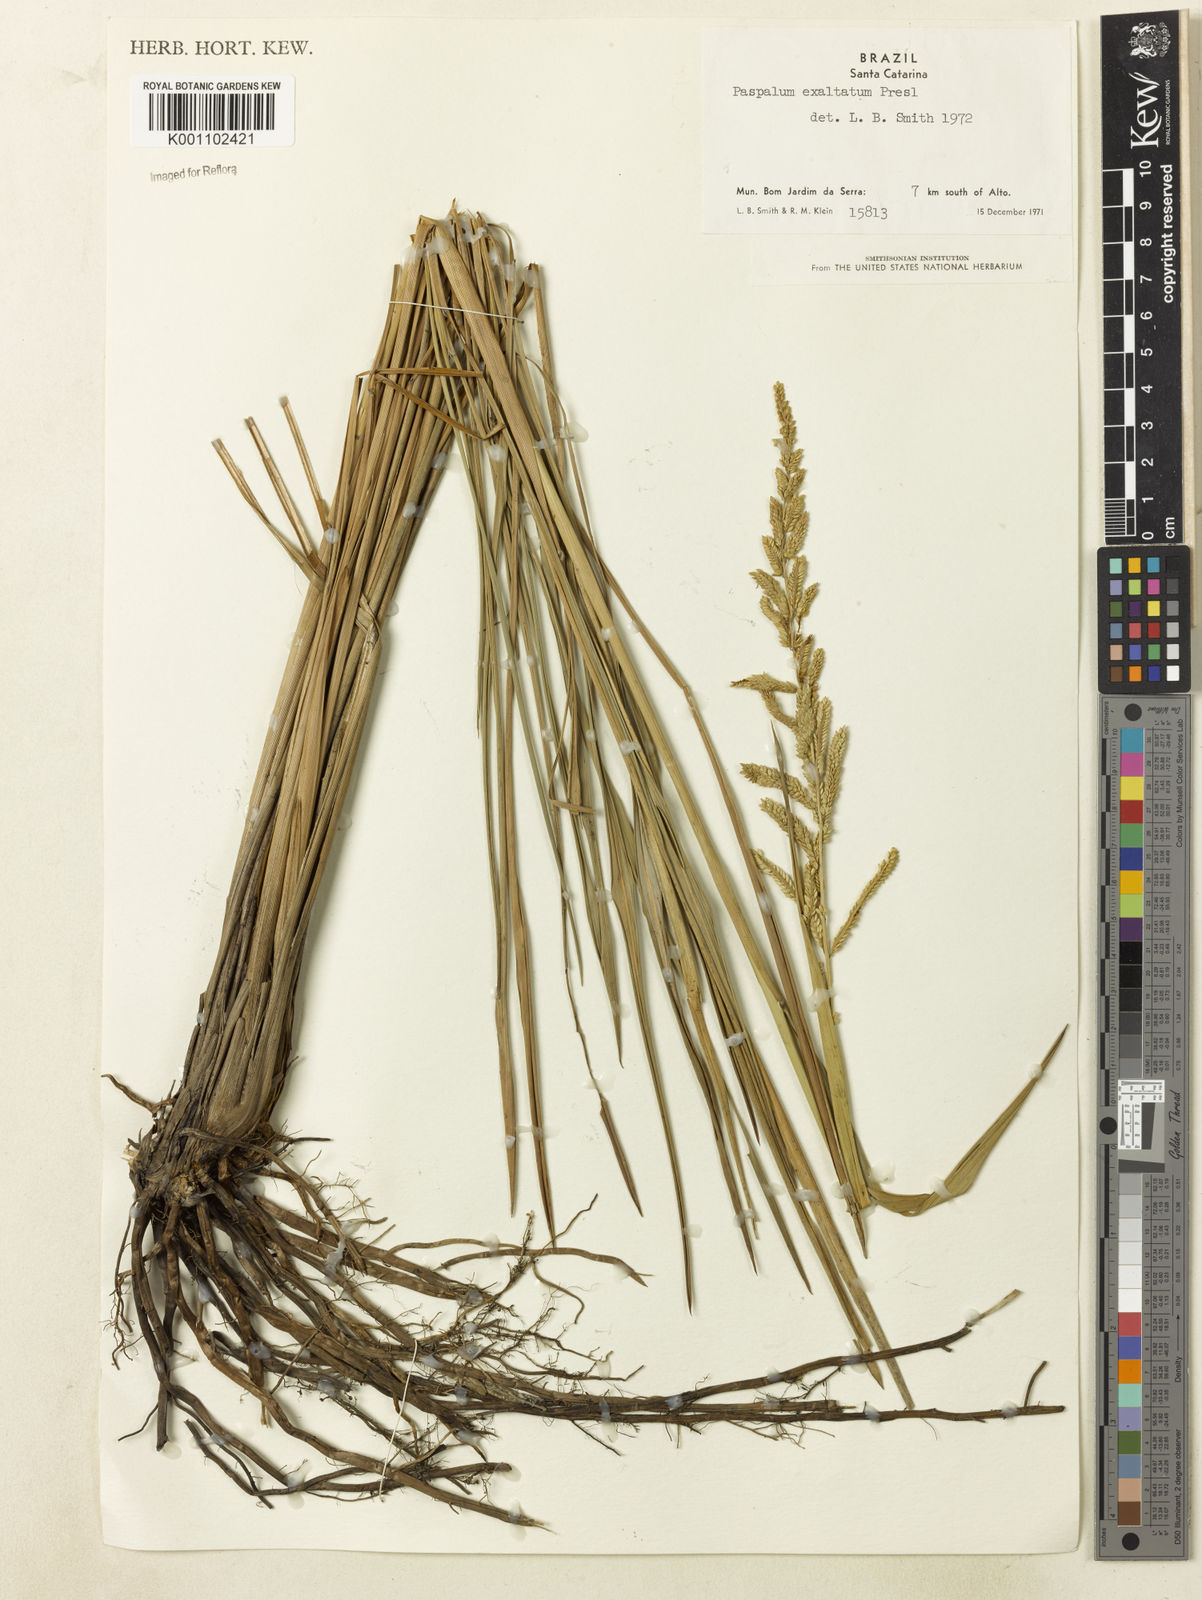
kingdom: Plantae
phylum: Tracheophyta
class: Liliopsida
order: Poales
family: Poaceae
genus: Paspalum
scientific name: Paspalum exaltatum
